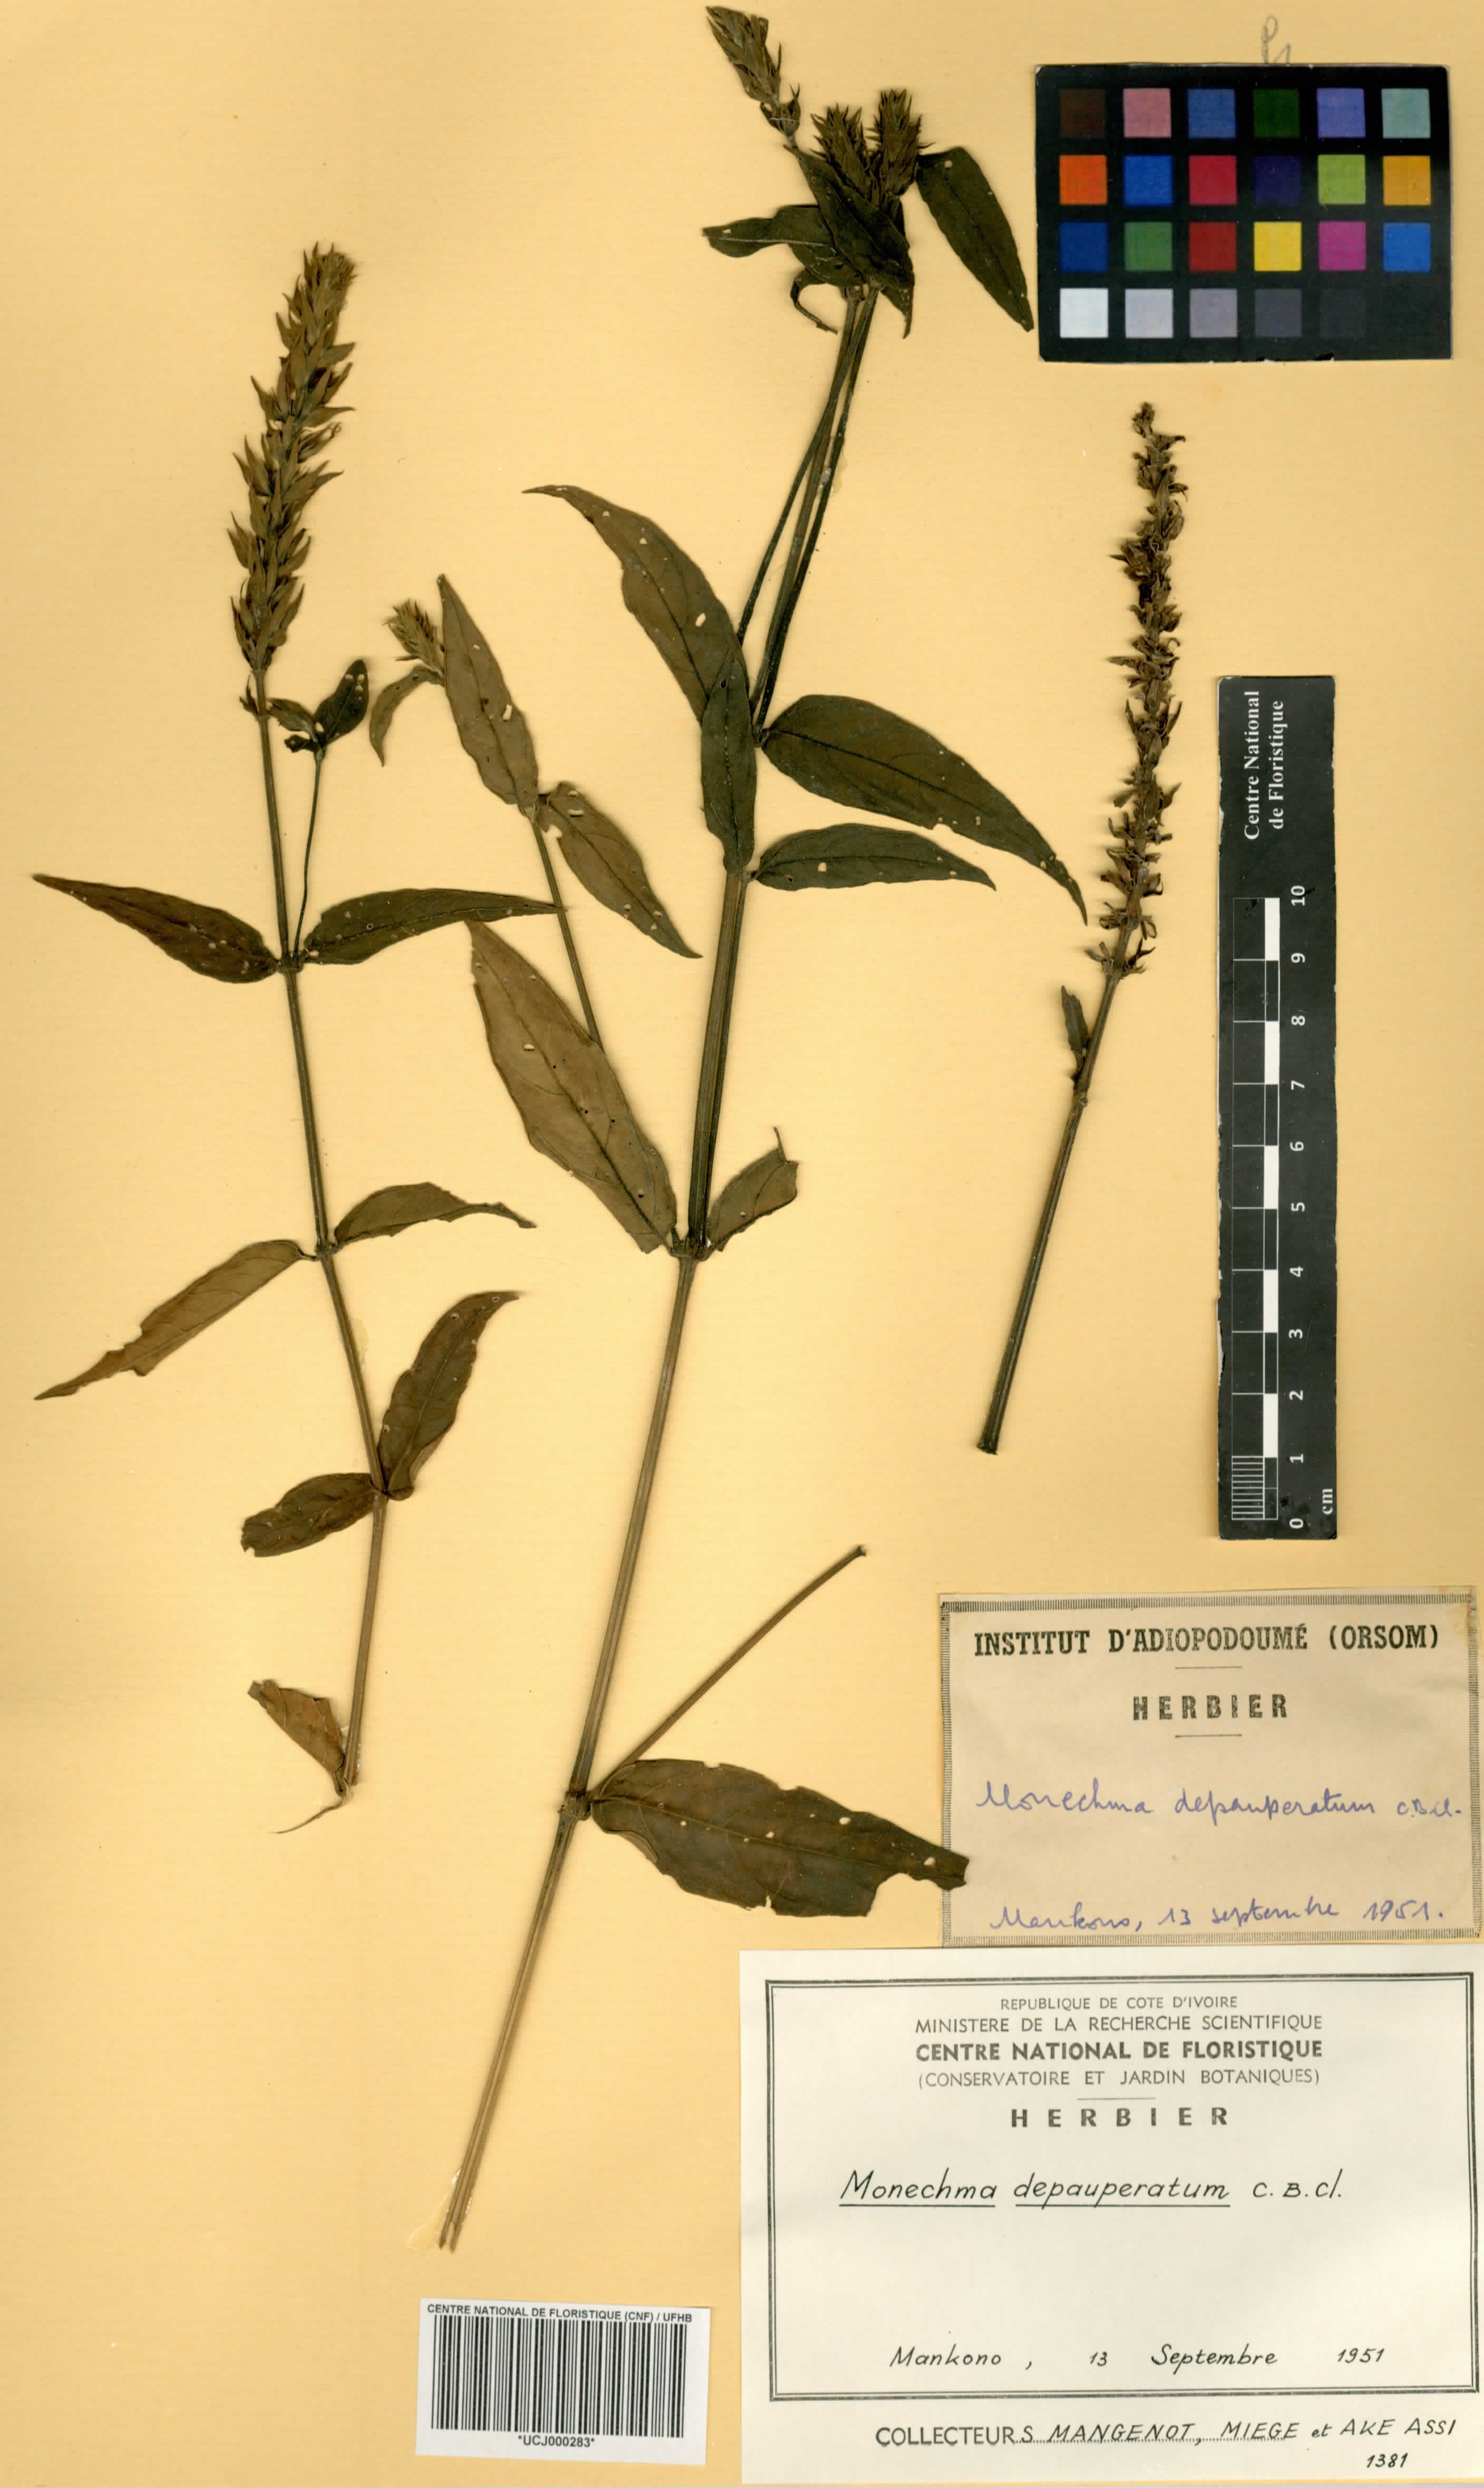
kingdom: Plantae
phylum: Tracheophyta
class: Magnoliopsida
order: Lamiales
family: Acanthaceae
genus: Monechma
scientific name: Monechma depauperatum
